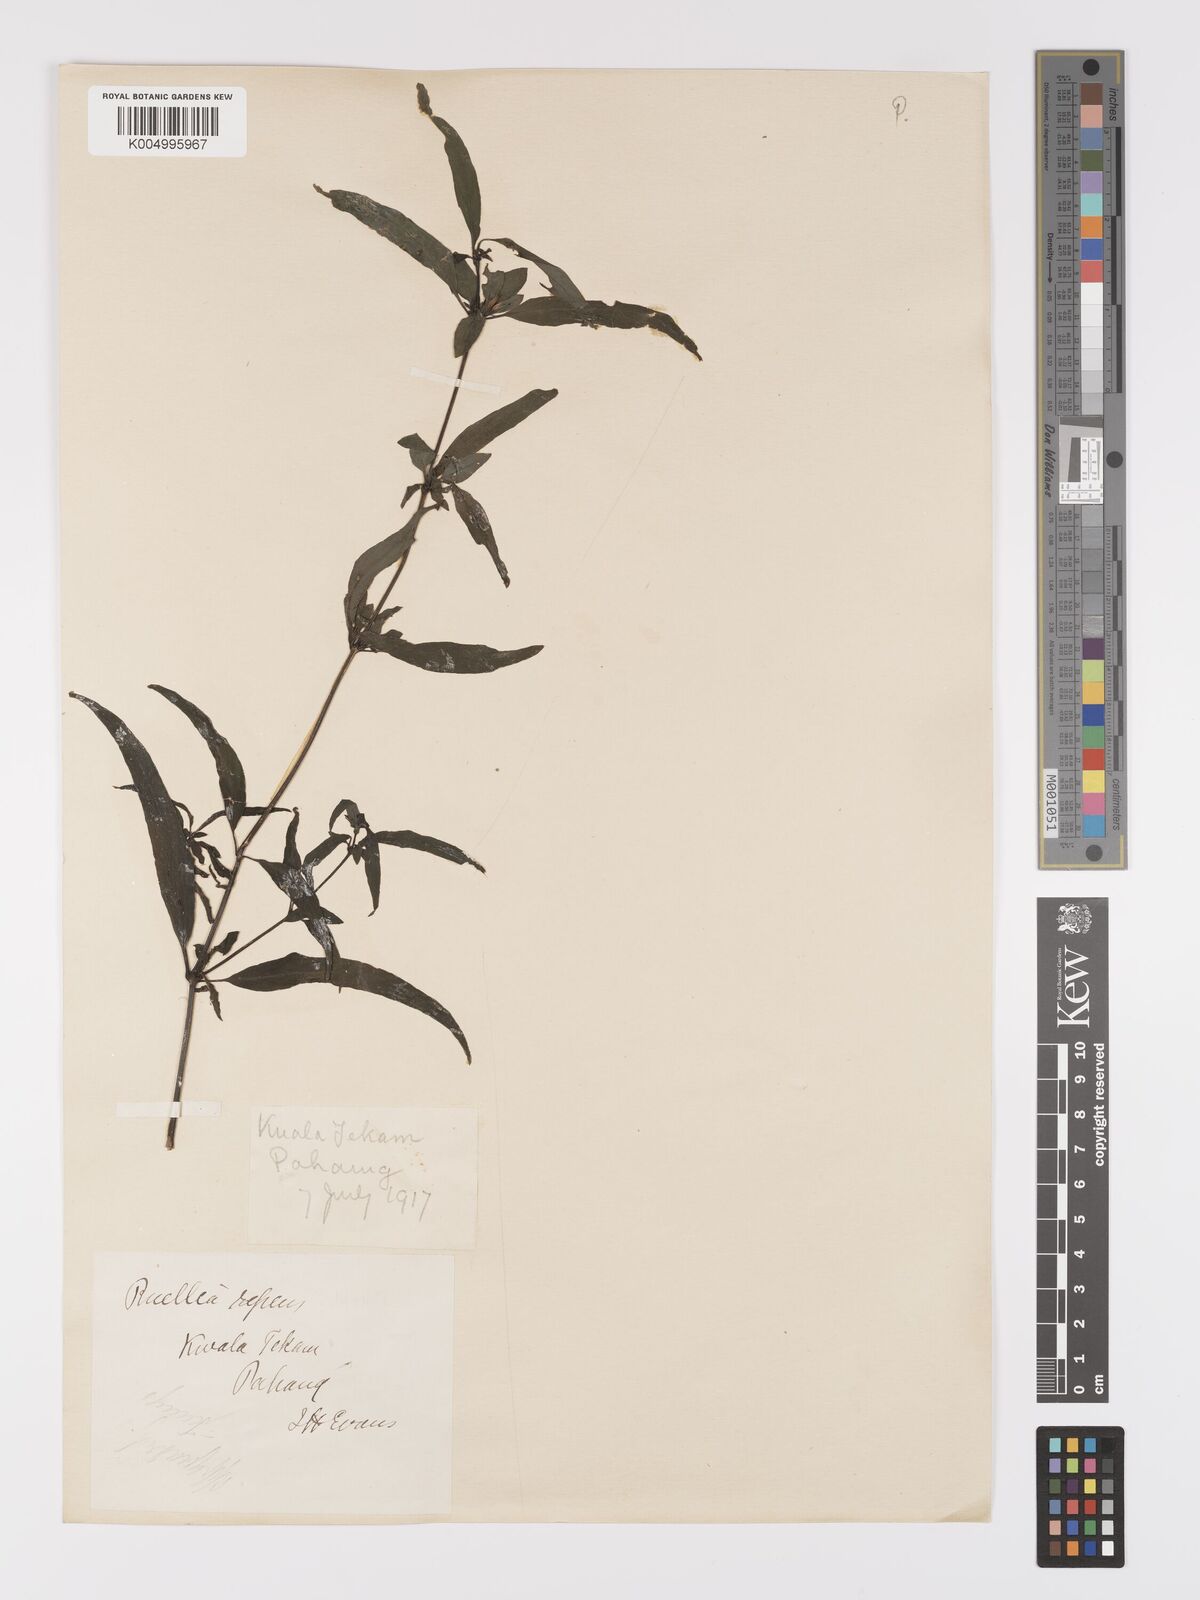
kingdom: Plantae
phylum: Tracheophyta
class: Magnoliopsida
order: Lamiales
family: Acanthaceae
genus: Ruellia
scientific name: Ruellia
